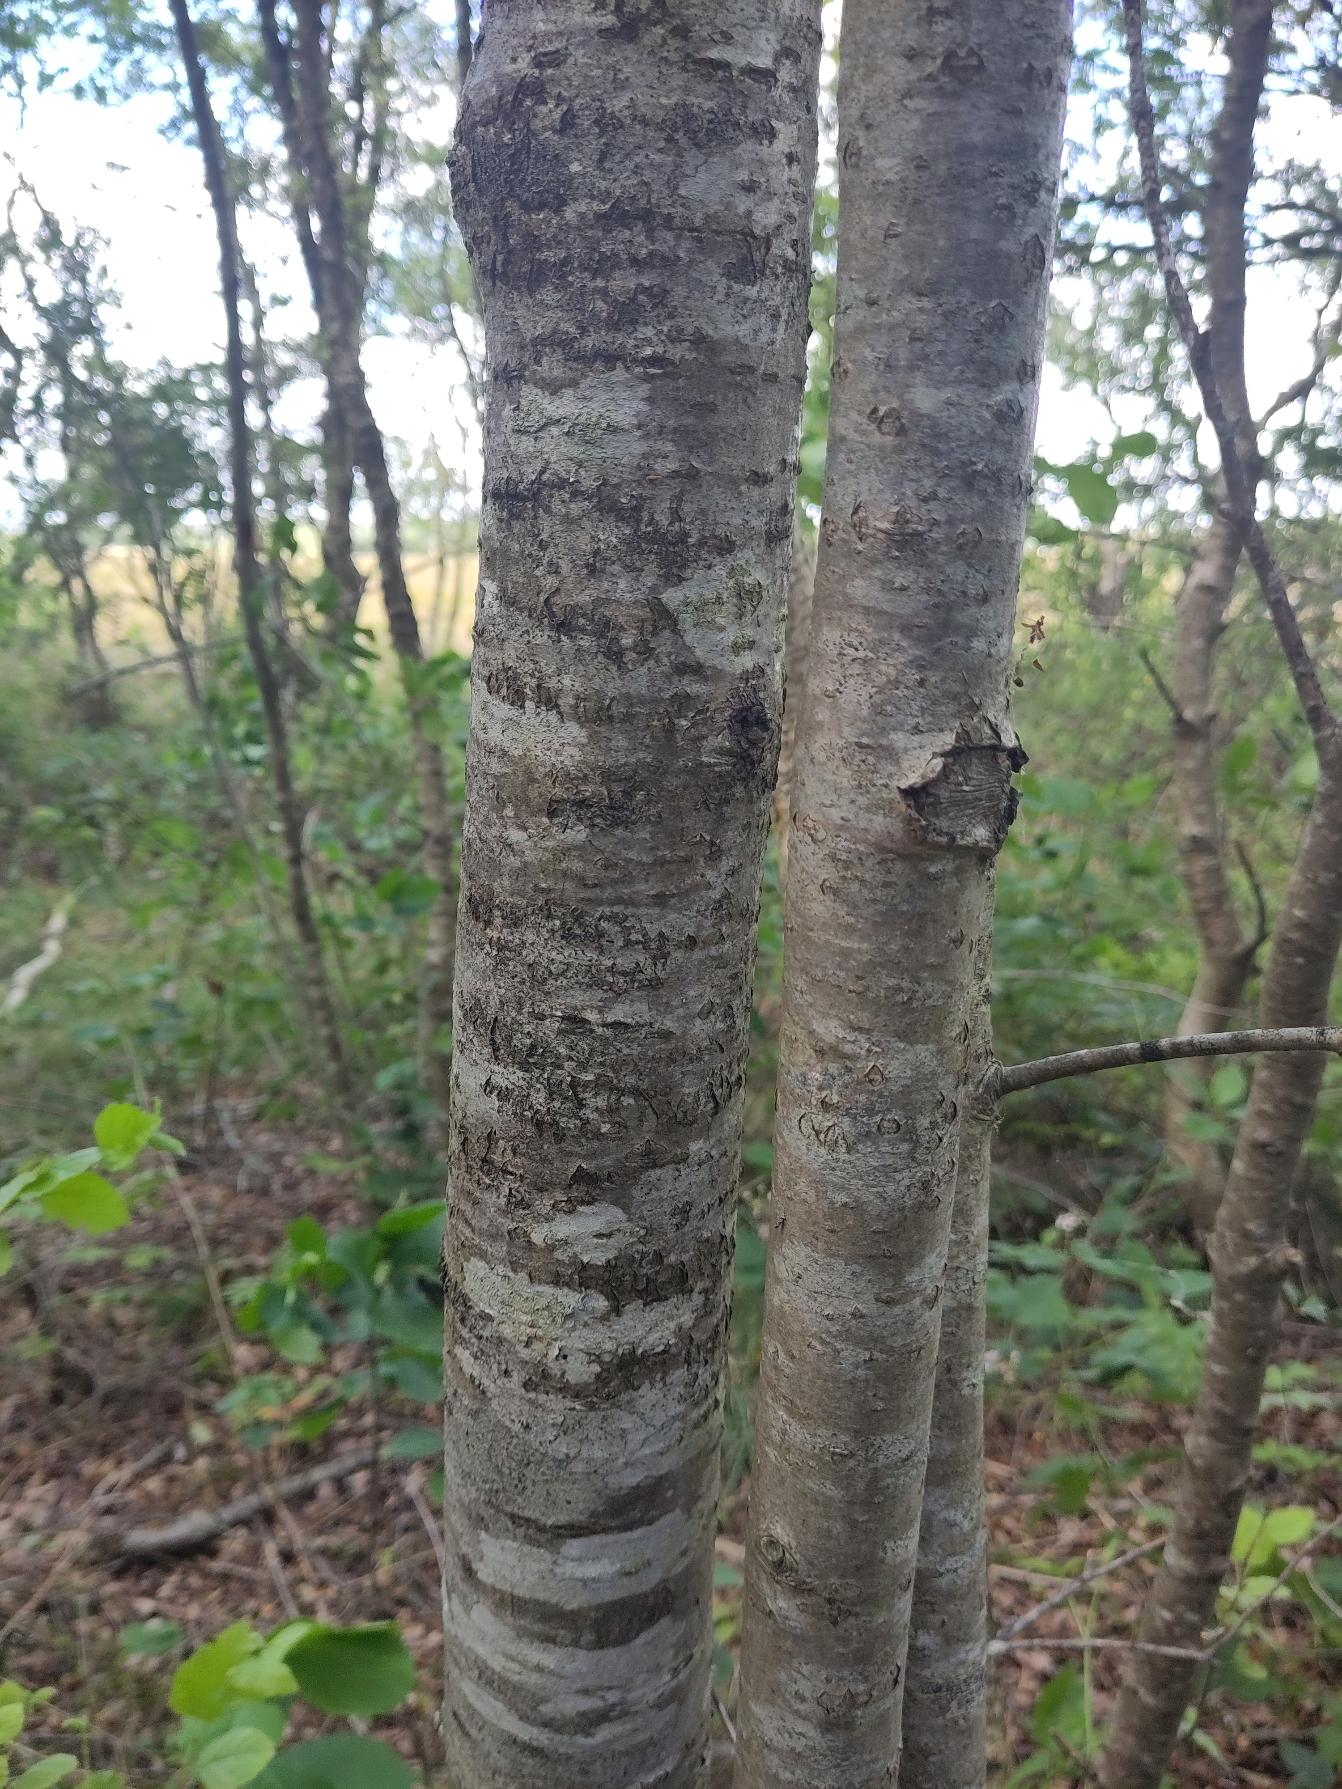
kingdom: Plantae
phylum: Tracheophyta
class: Magnoliopsida
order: Rosales
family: Rosaceae
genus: Sorbus
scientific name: Sorbus aucuparia
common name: Almindelig røn
